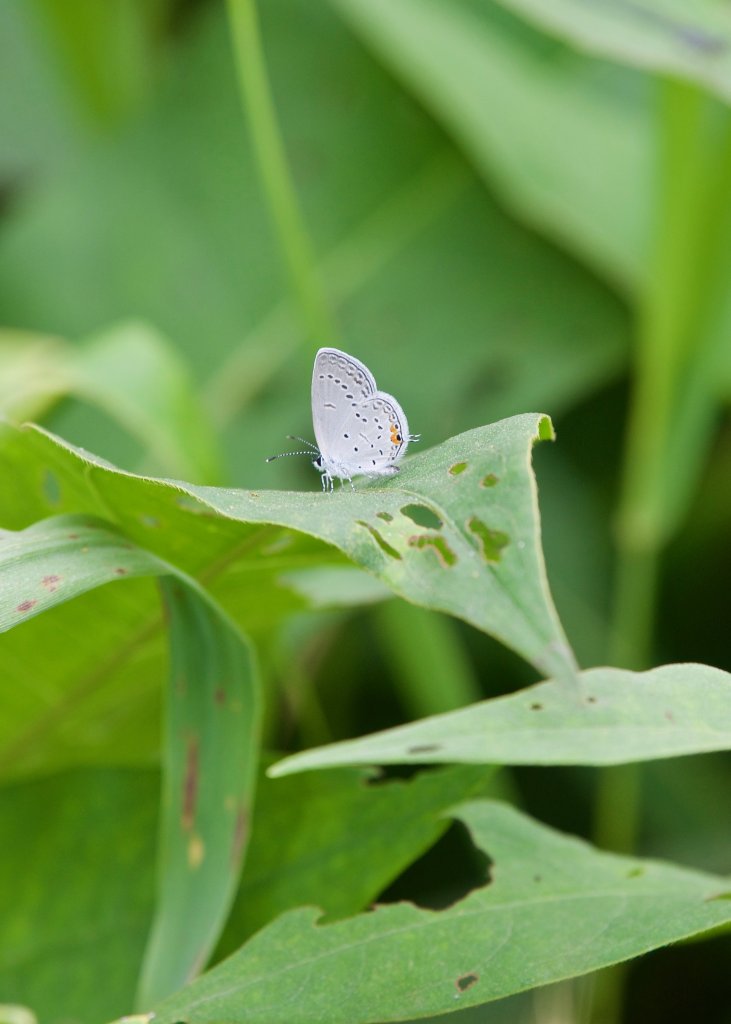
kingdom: Animalia
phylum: Arthropoda
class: Insecta
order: Lepidoptera
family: Lycaenidae
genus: Elkalyce
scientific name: Elkalyce comyntas
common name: Eastern Tailed-Blue
